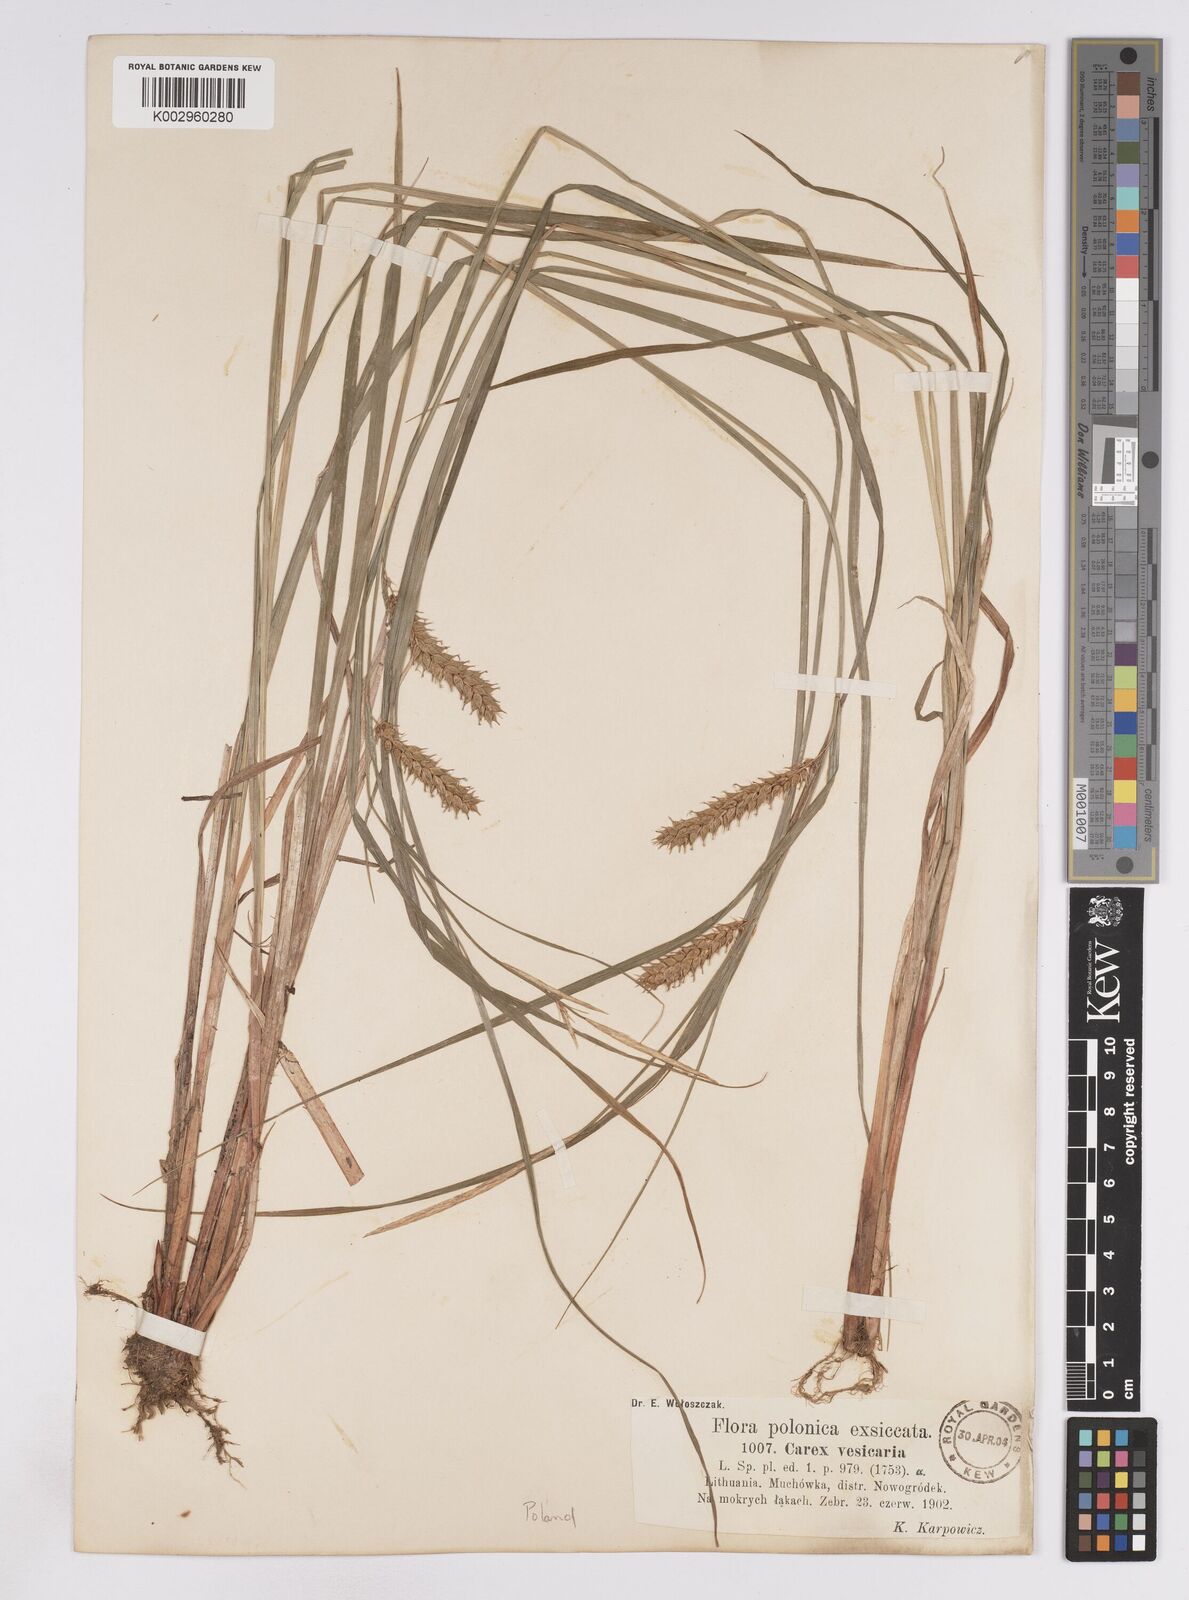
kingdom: Plantae
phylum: Tracheophyta
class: Liliopsida
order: Poales
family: Cyperaceae
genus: Carex
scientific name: Carex vesicaria
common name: Bladder-sedge
